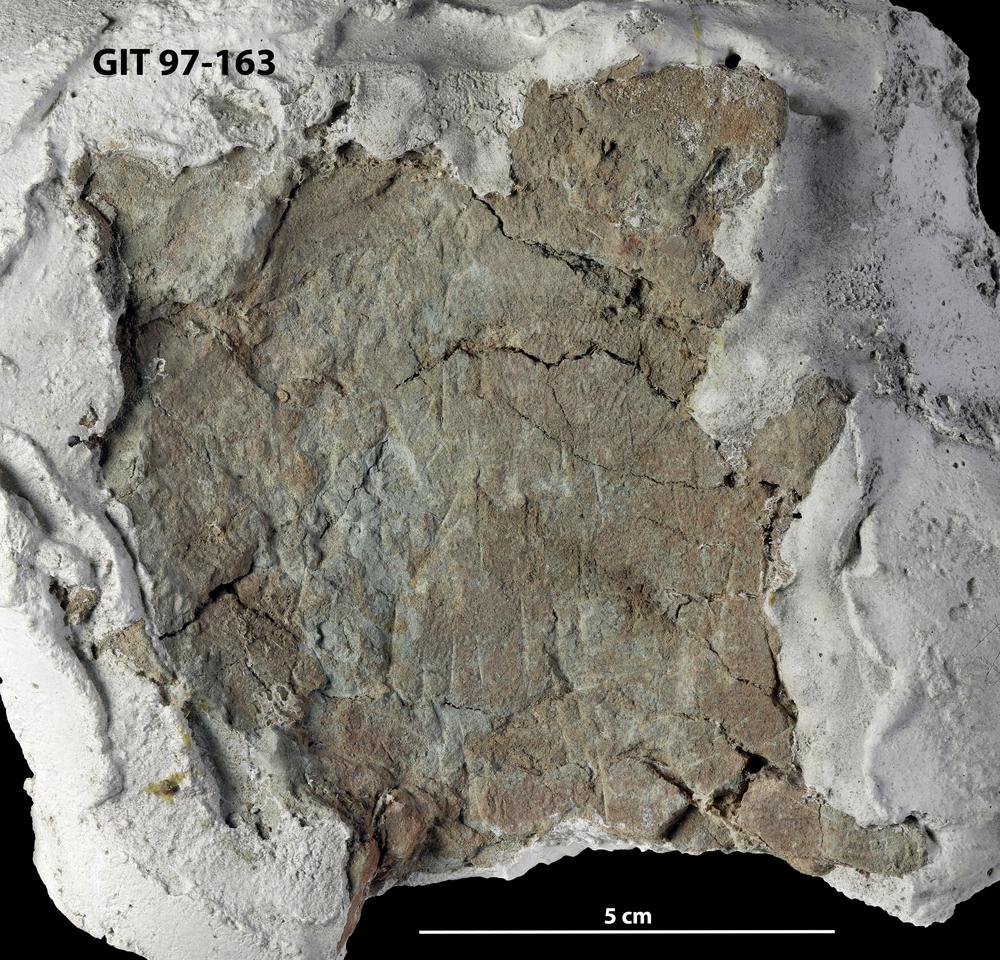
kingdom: Animalia
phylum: Chordata
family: Holonematidae
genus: Holonema
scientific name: Holonema
